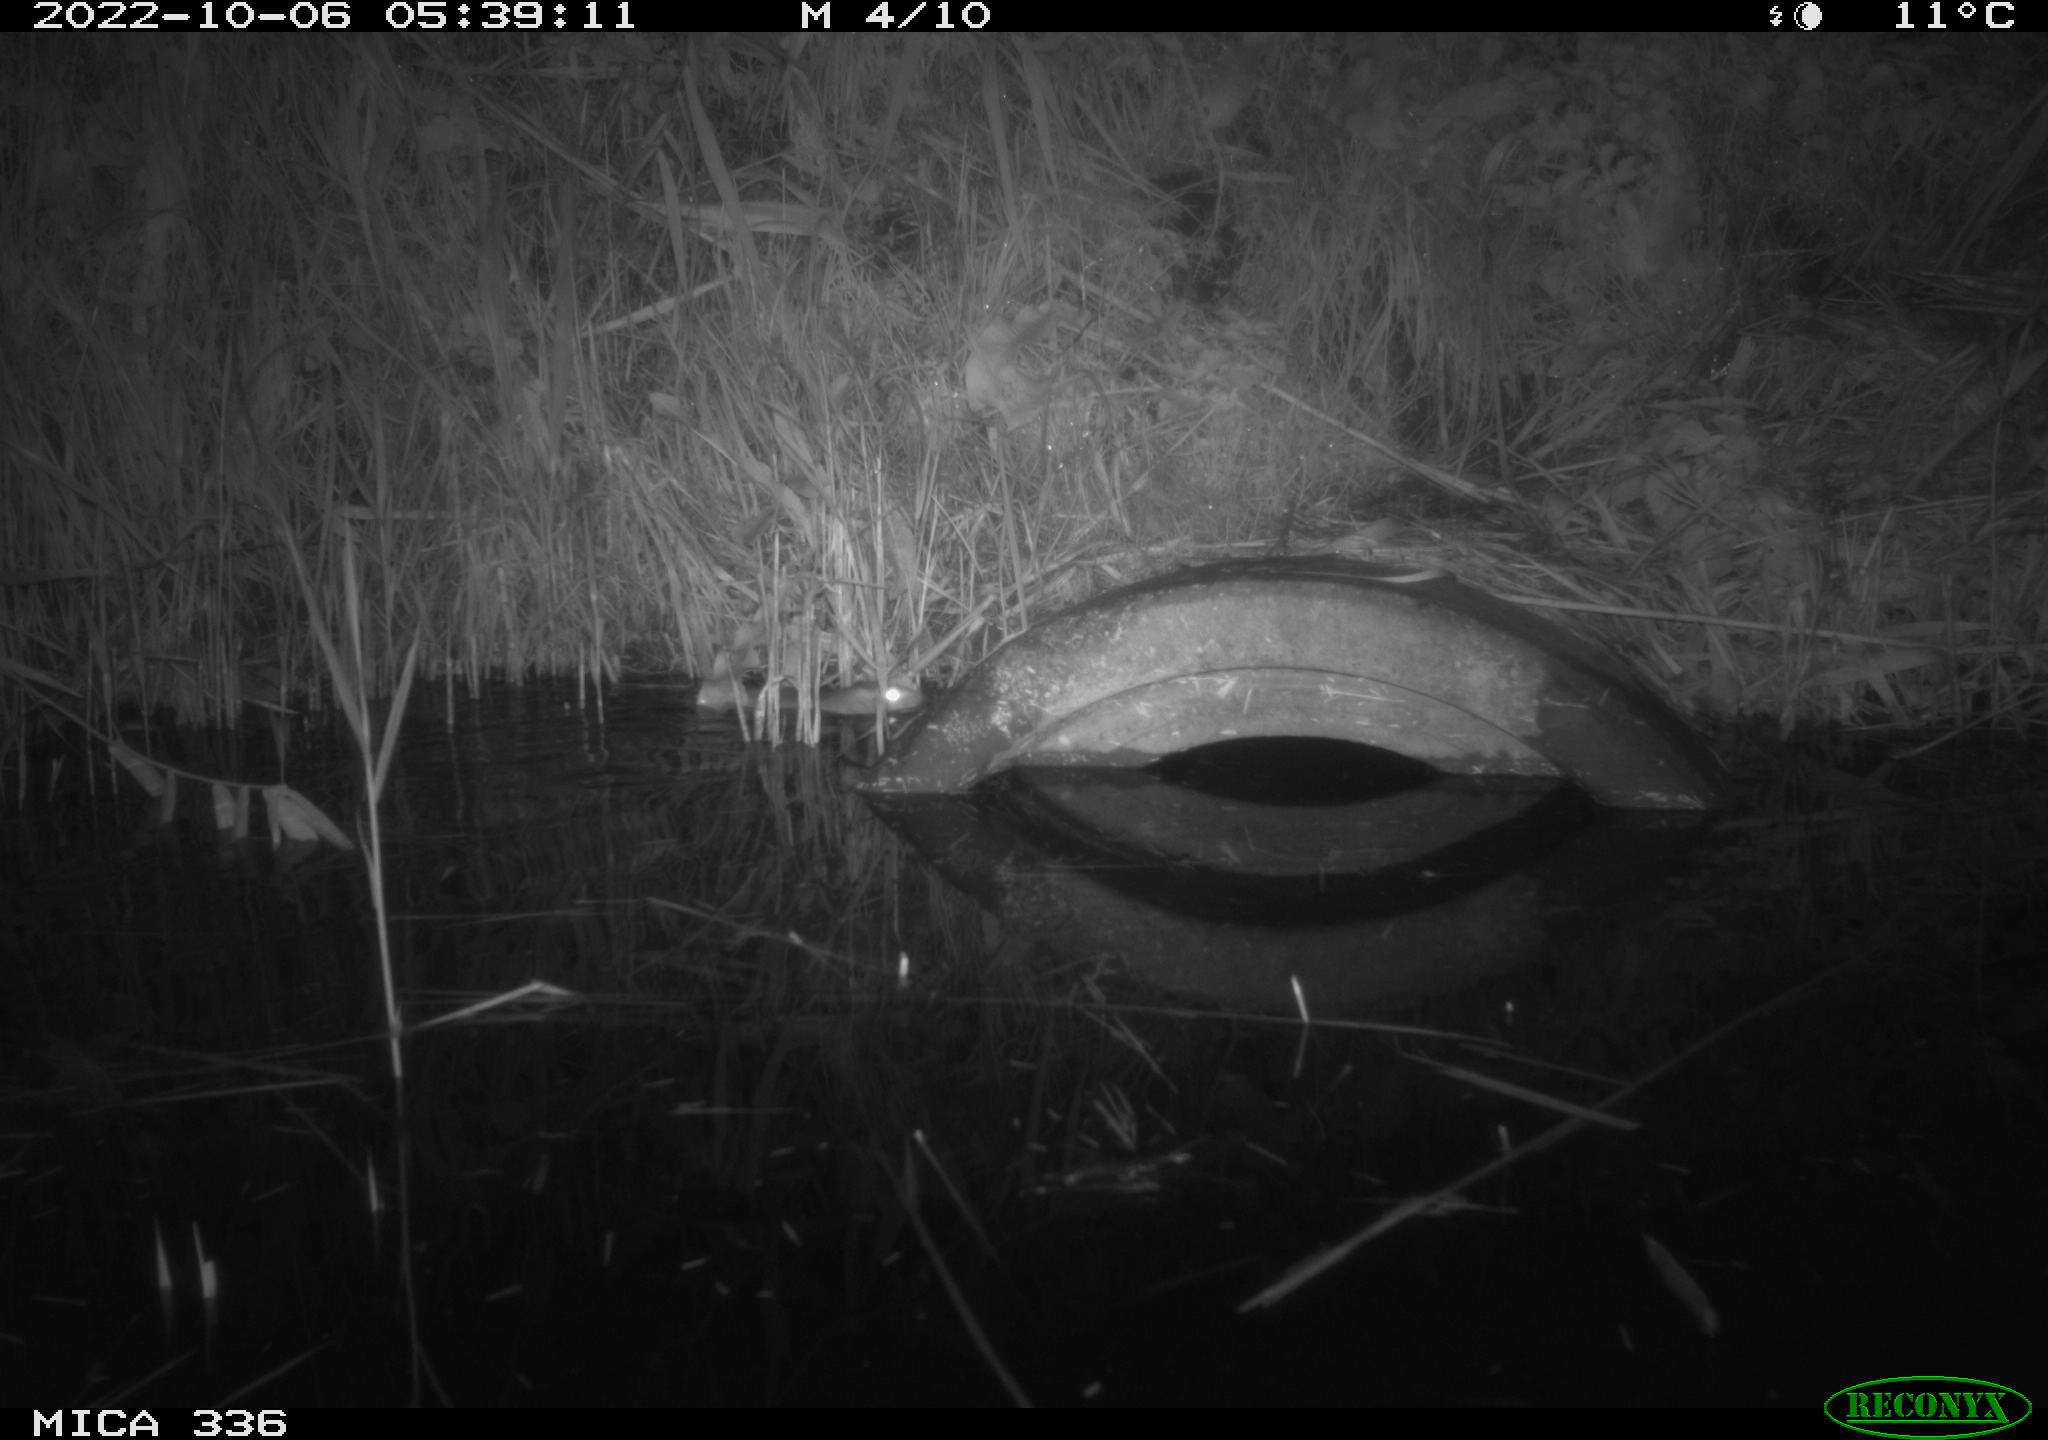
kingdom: Animalia
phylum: Chordata
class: Mammalia
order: Rodentia
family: Muridae
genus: Rattus
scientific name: Rattus norvegicus
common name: Brown rat
